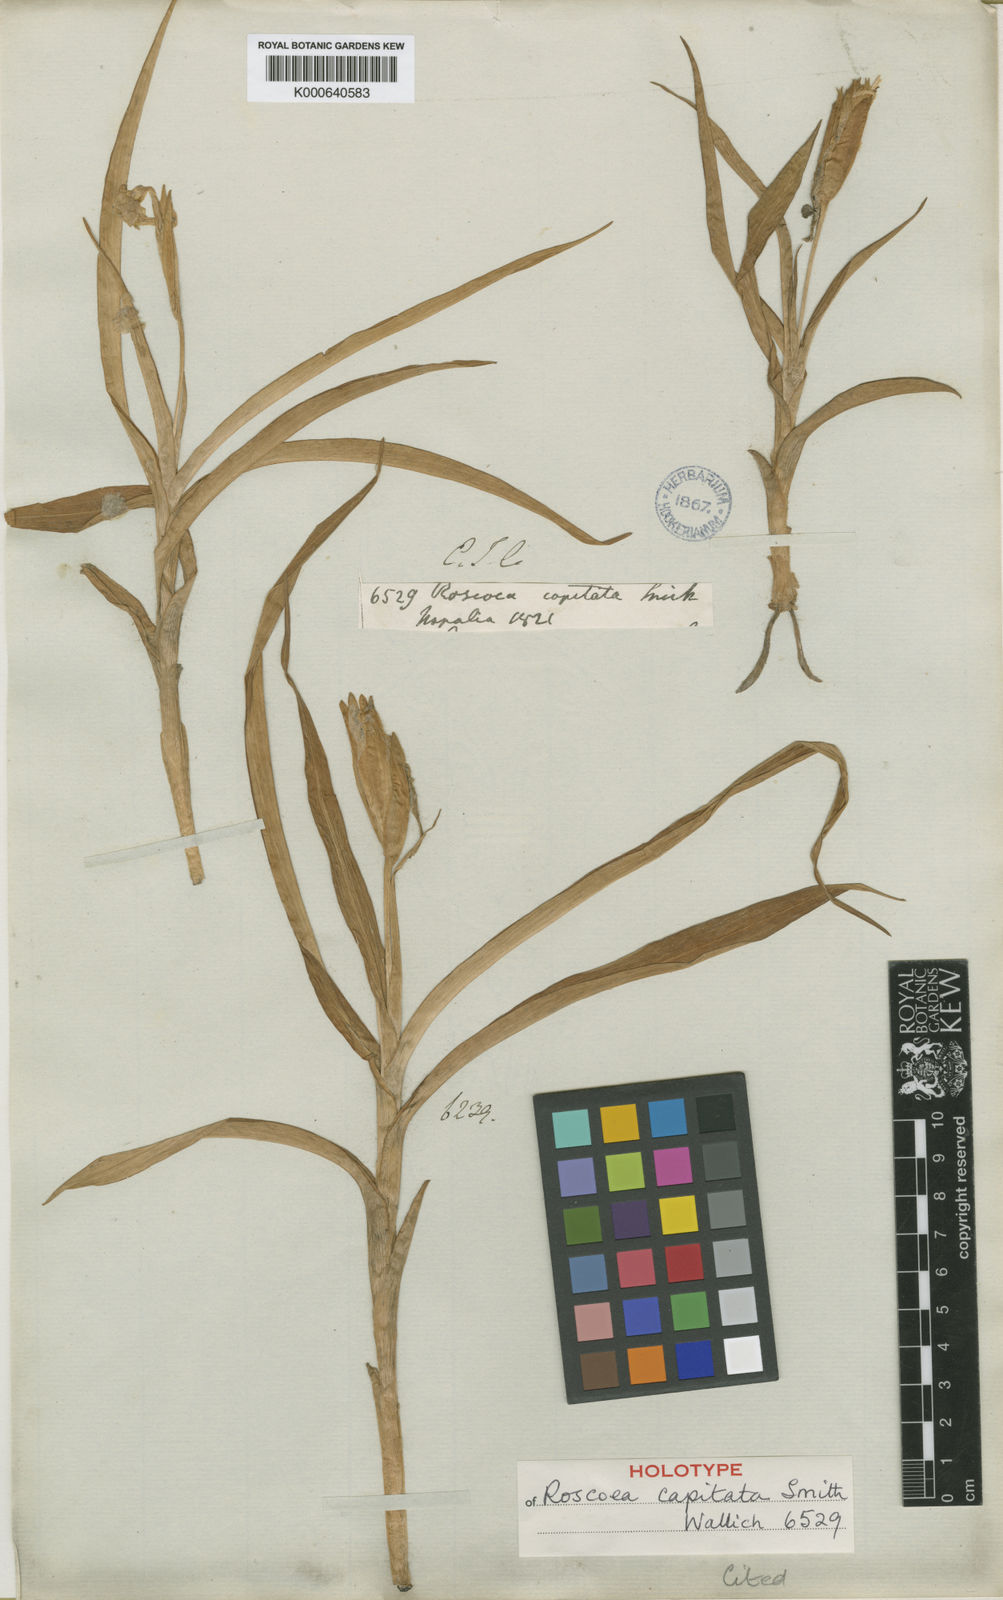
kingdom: Plantae
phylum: Tracheophyta
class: Liliopsida
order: Zingiberales
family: Zingiberaceae
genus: Roscoea
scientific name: Roscoea capitata
